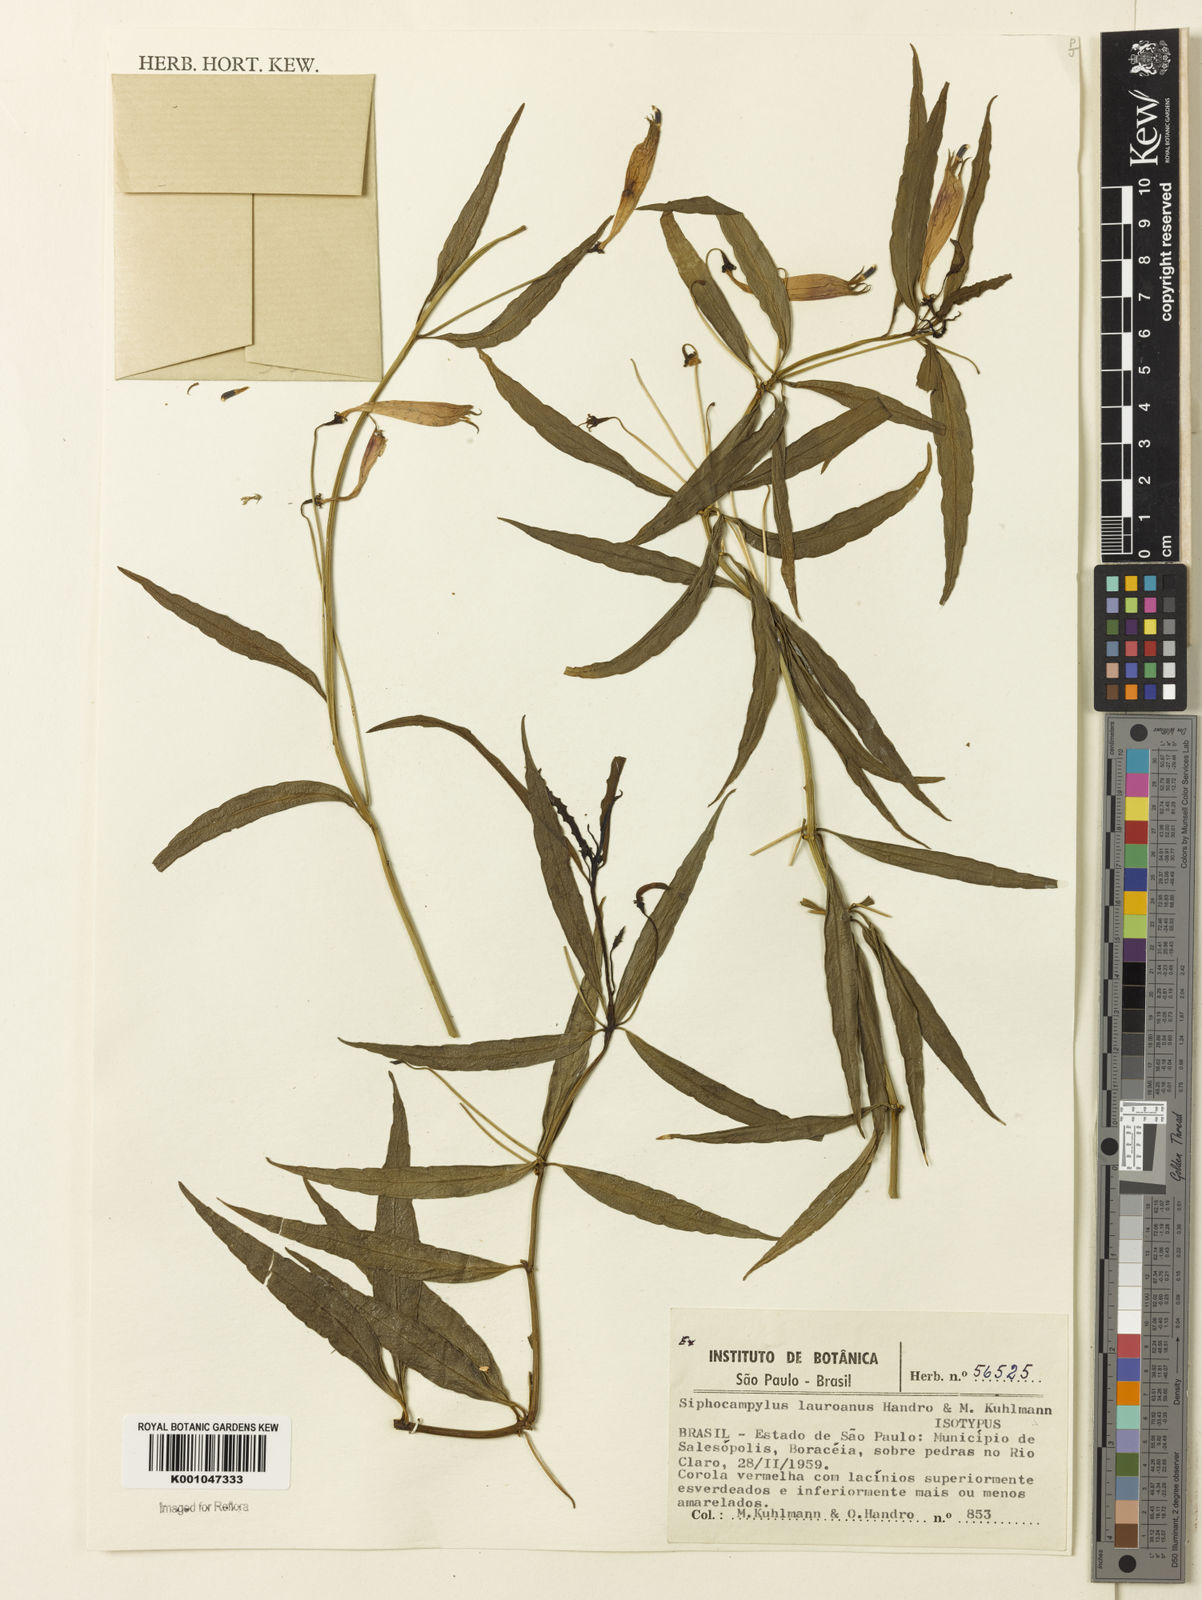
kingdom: Plantae
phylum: Tracheophyta
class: Magnoliopsida
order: Asterales
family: Campanulaceae
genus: Siphocampylus
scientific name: Siphocampylus lauroanus
